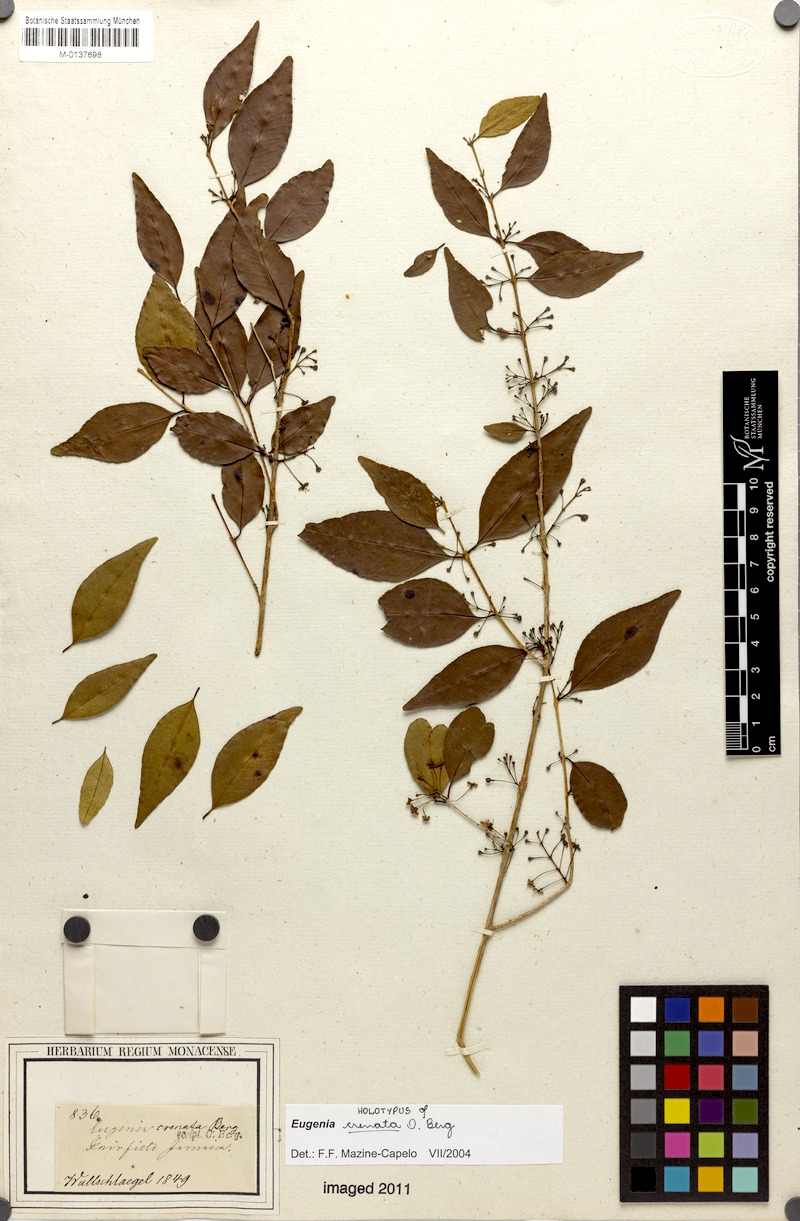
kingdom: Plantae
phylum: Tracheophyta
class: Magnoliopsida
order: Myrtales
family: Myrtaceae
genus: Eugenia
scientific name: Eugenia harrisii
